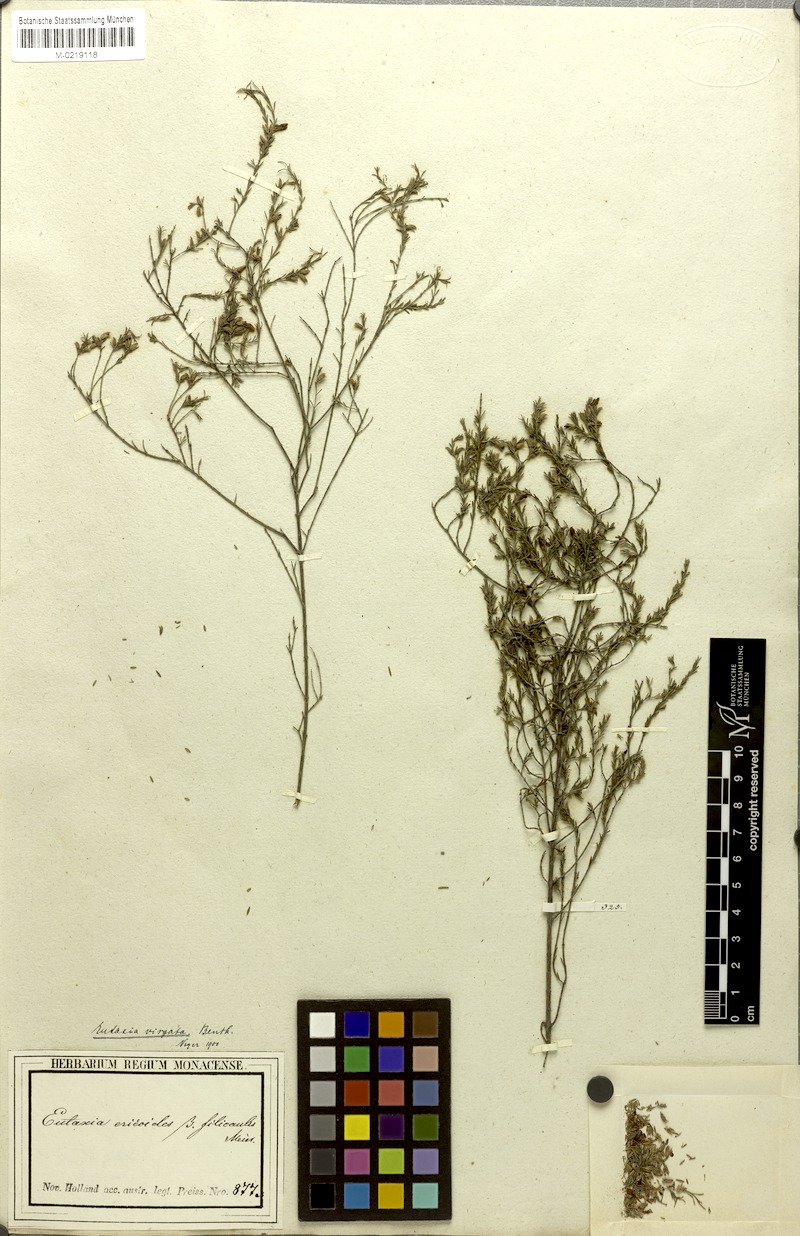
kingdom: Plantae
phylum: Tracheophyta
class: Magnoliopsida
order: Fabales
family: Fabaceae
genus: Eutaxia
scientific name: Eutaxia virgata
